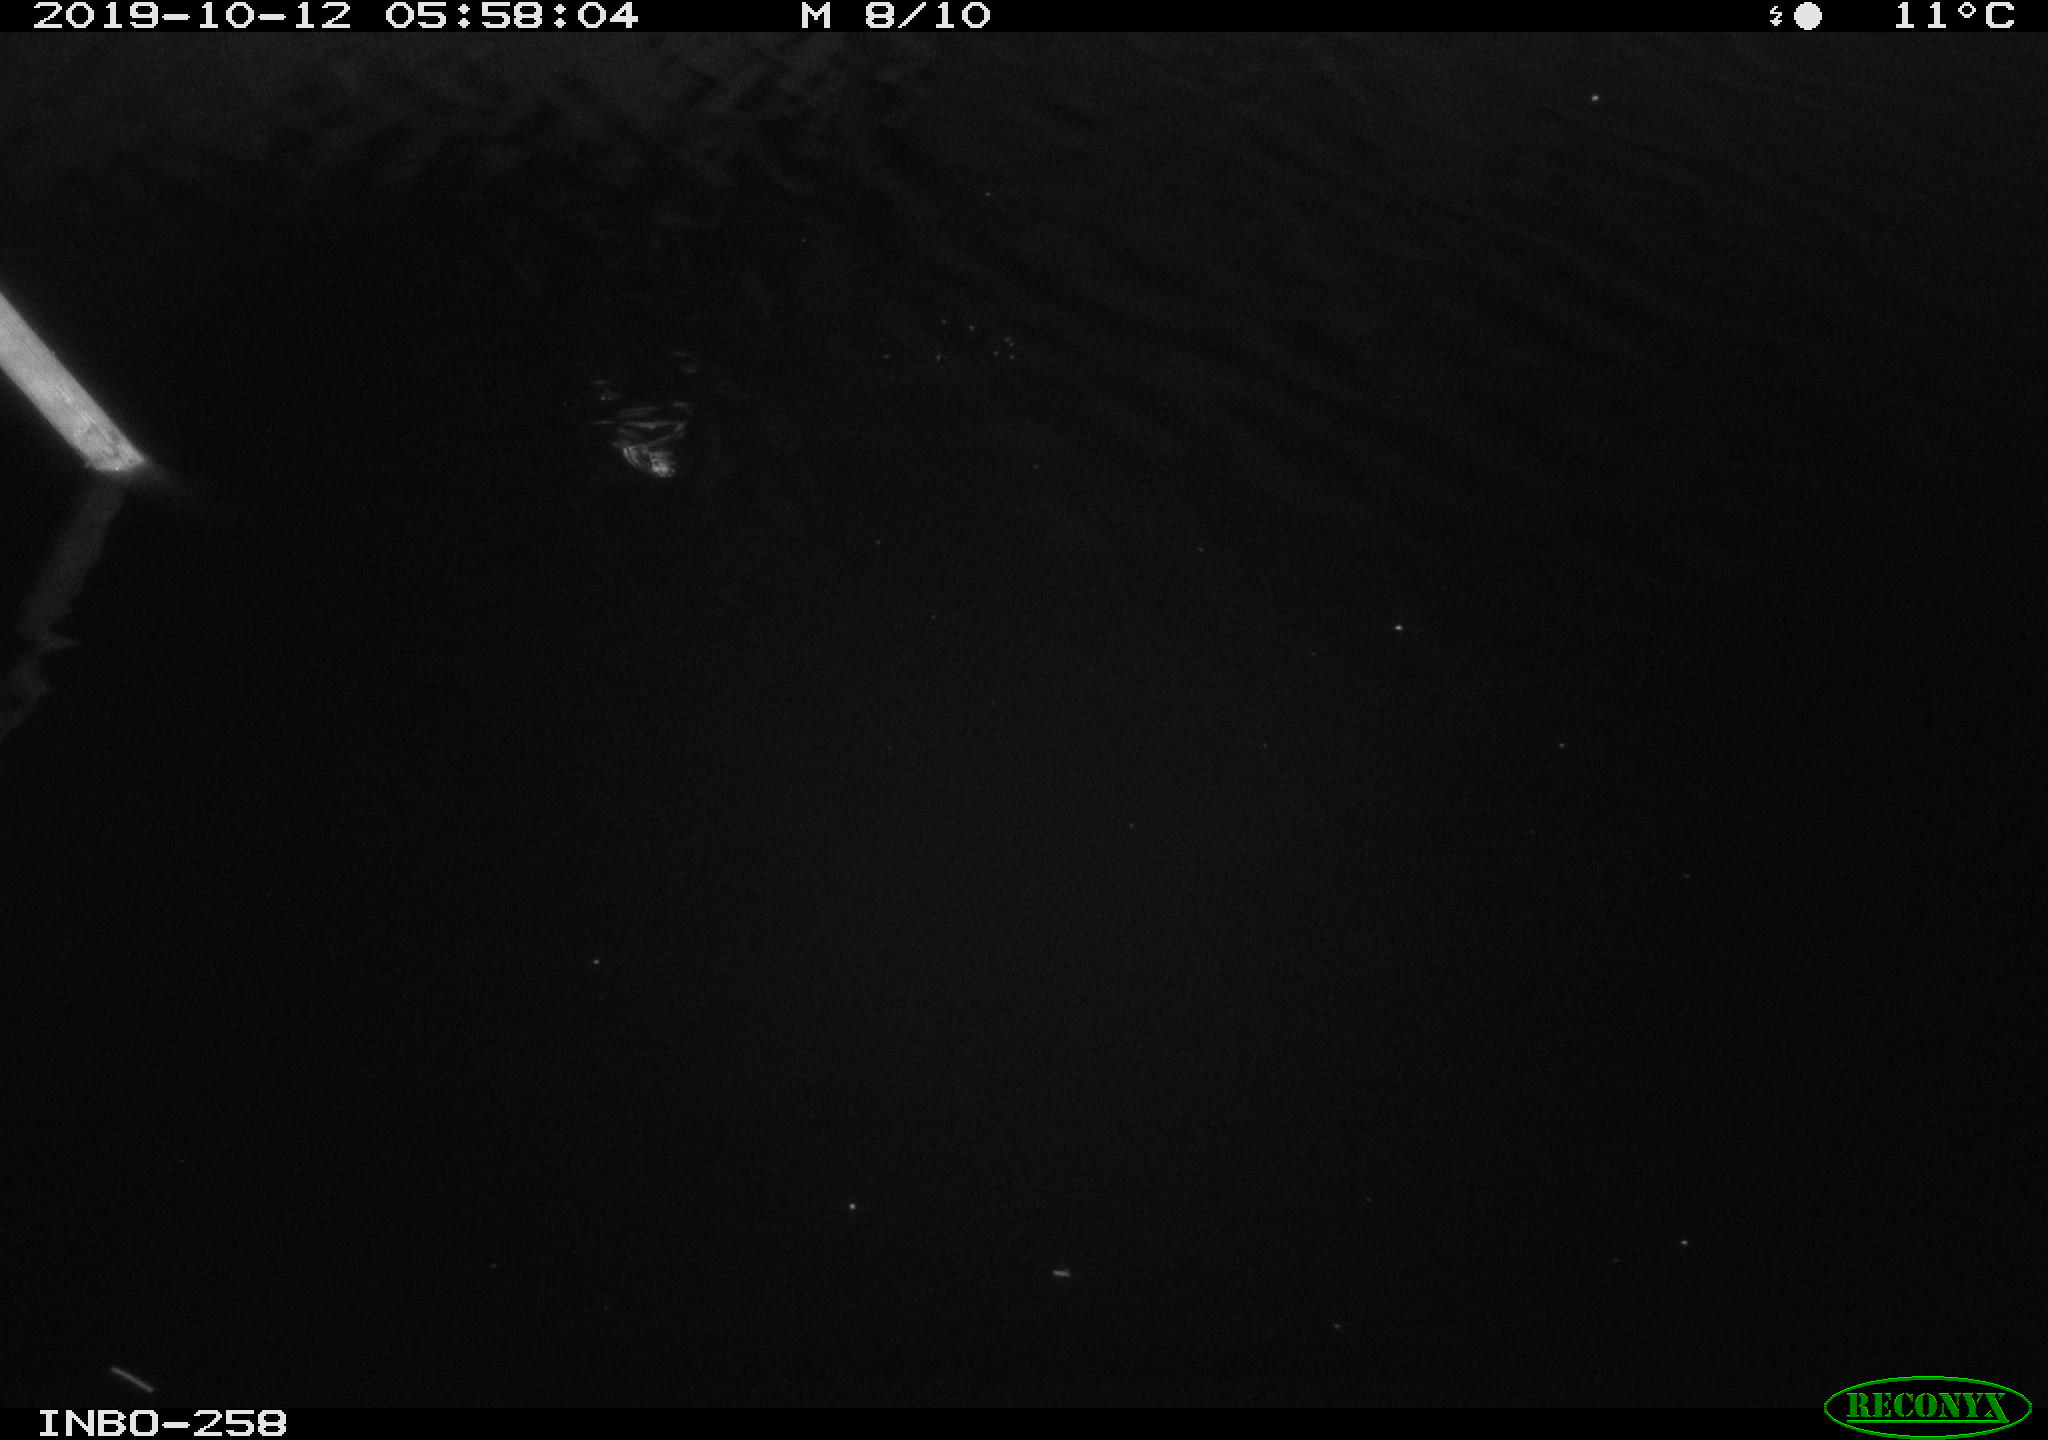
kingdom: Animalia
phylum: Chordata
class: Mammalia
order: Rodentia
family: Muridae
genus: Rattus
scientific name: Rattus norvegicus
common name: Brown rat
